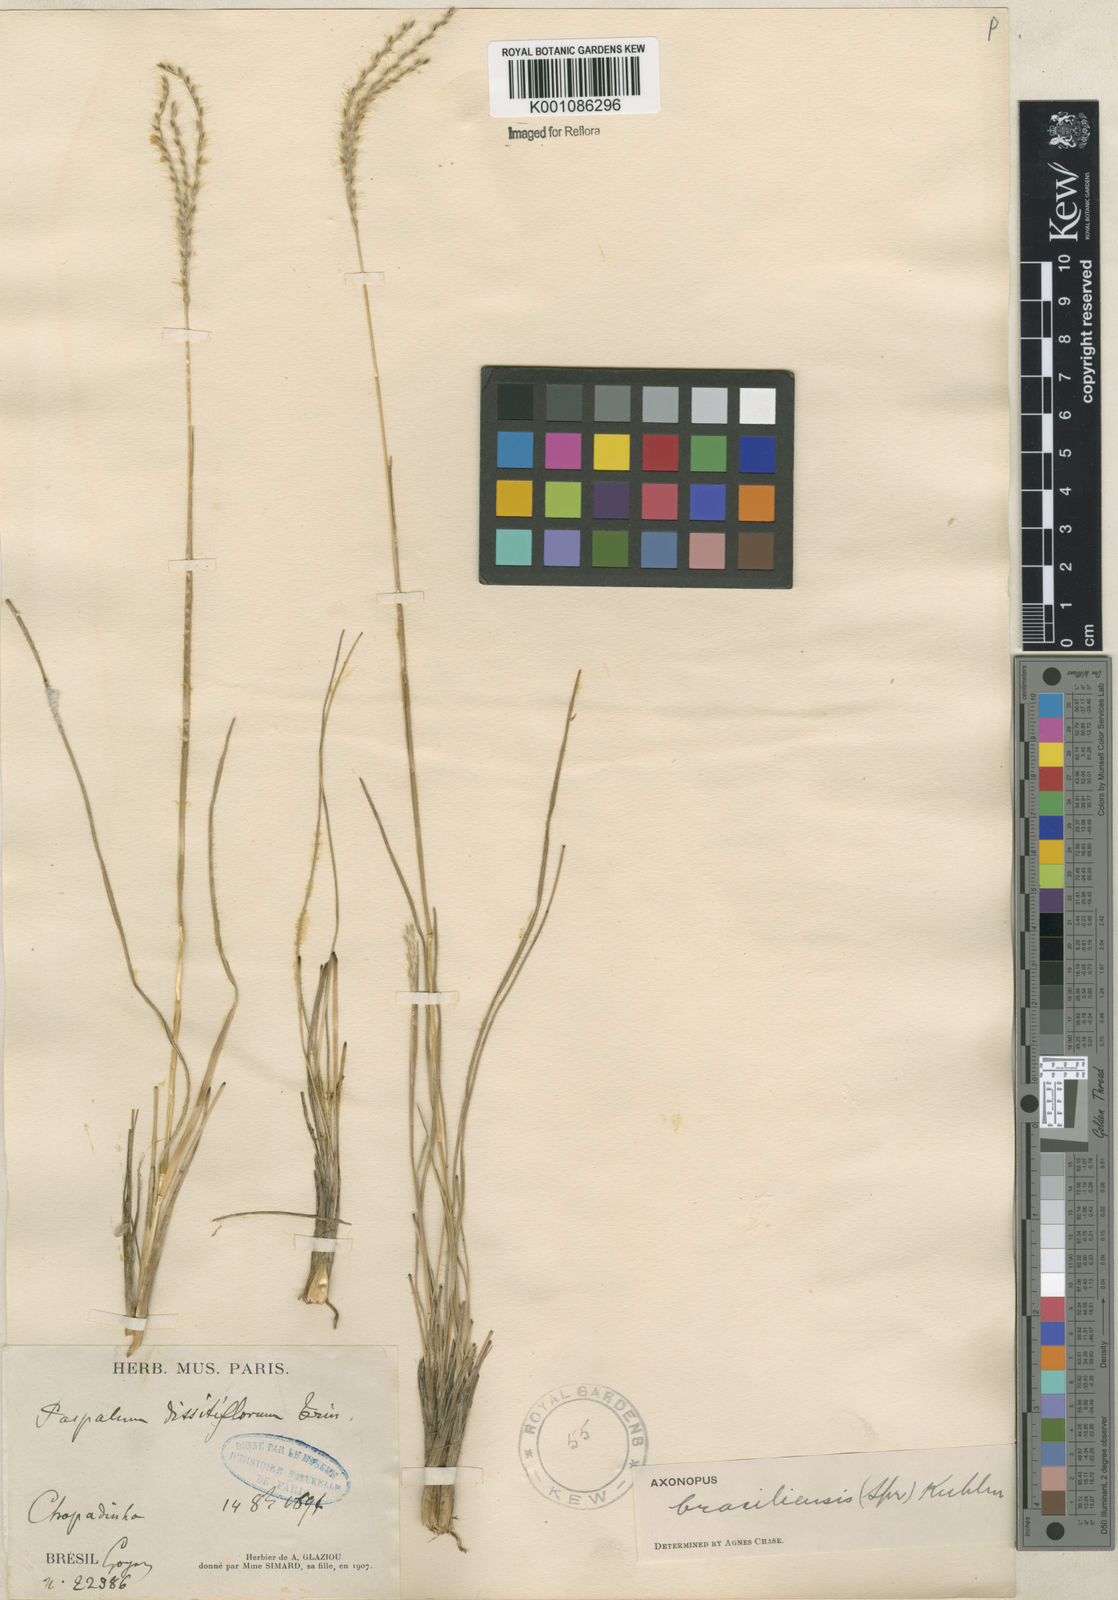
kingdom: Plantae
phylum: Tracheophyta
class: Liliopsida
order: Poales
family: Poaceae
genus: Axonopus
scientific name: Axonopus brasiliensis
